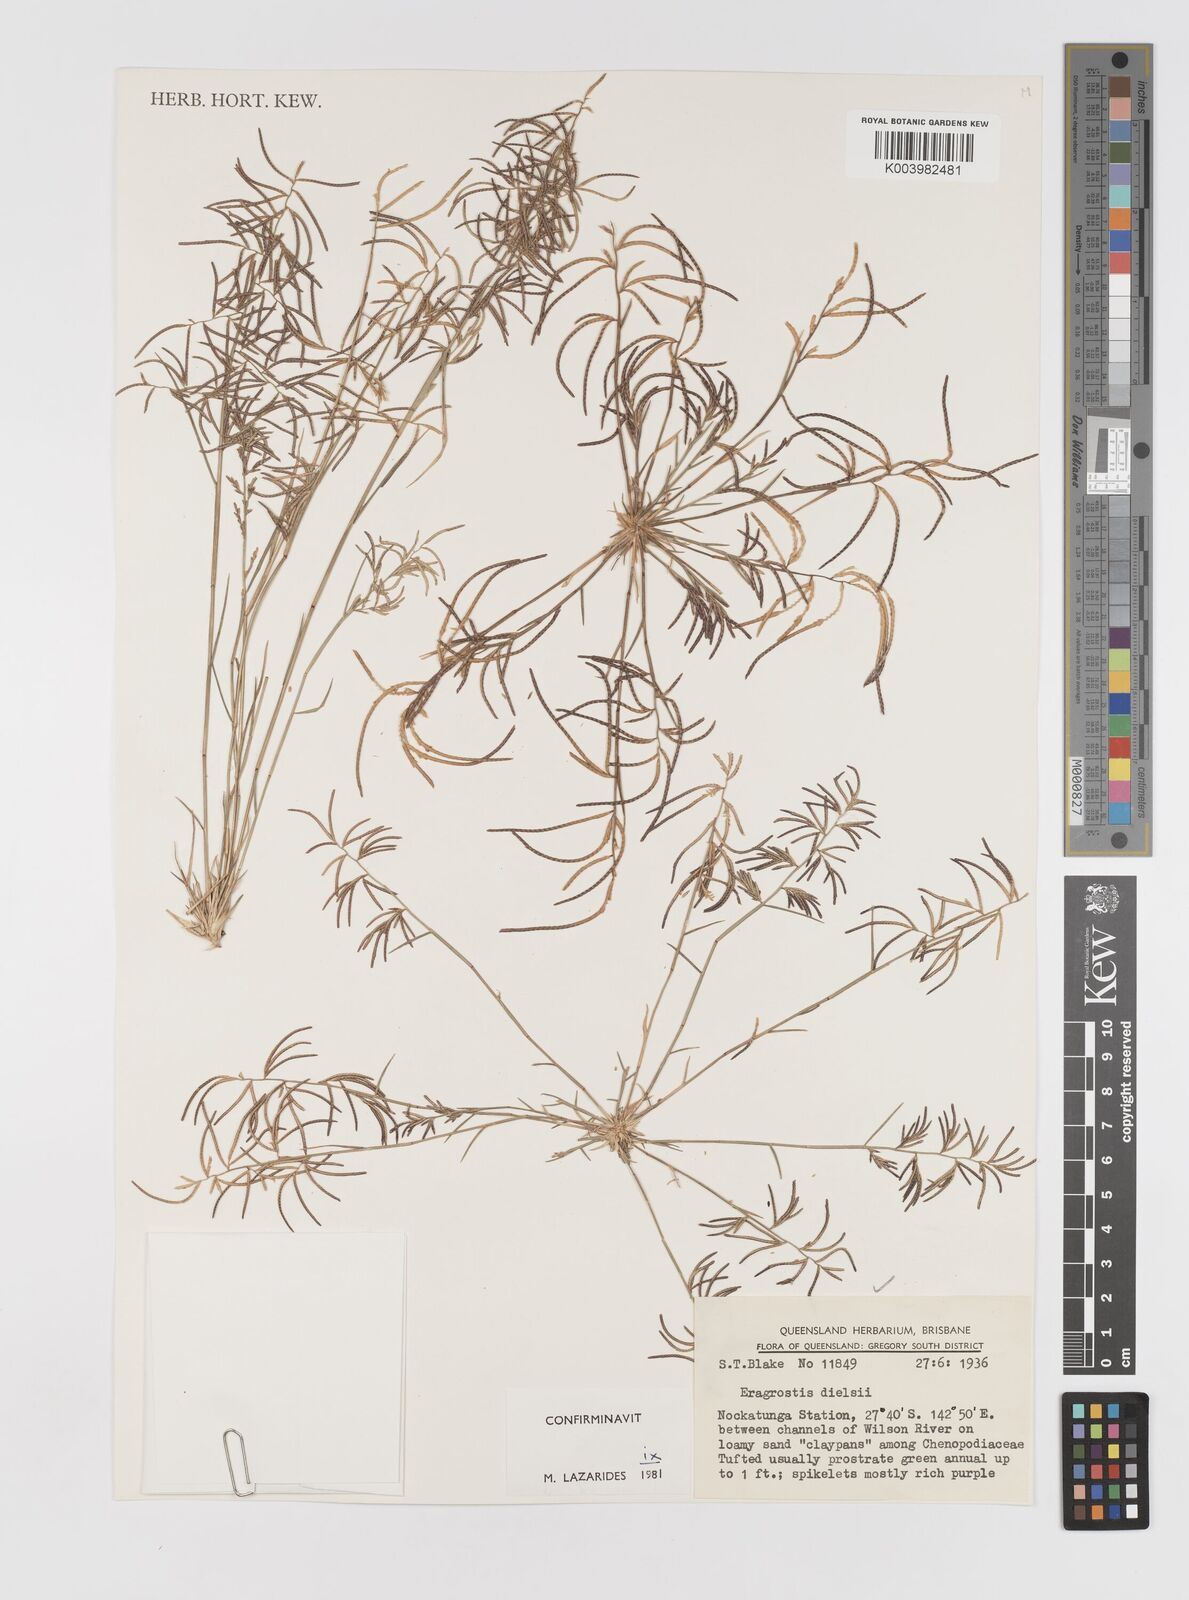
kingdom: Plantae
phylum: Tracheophyta
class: Liliopsida
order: Poales
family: Poaceae
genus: Eragrostis
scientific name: Eragrostis dielsii
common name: Lovegrass
